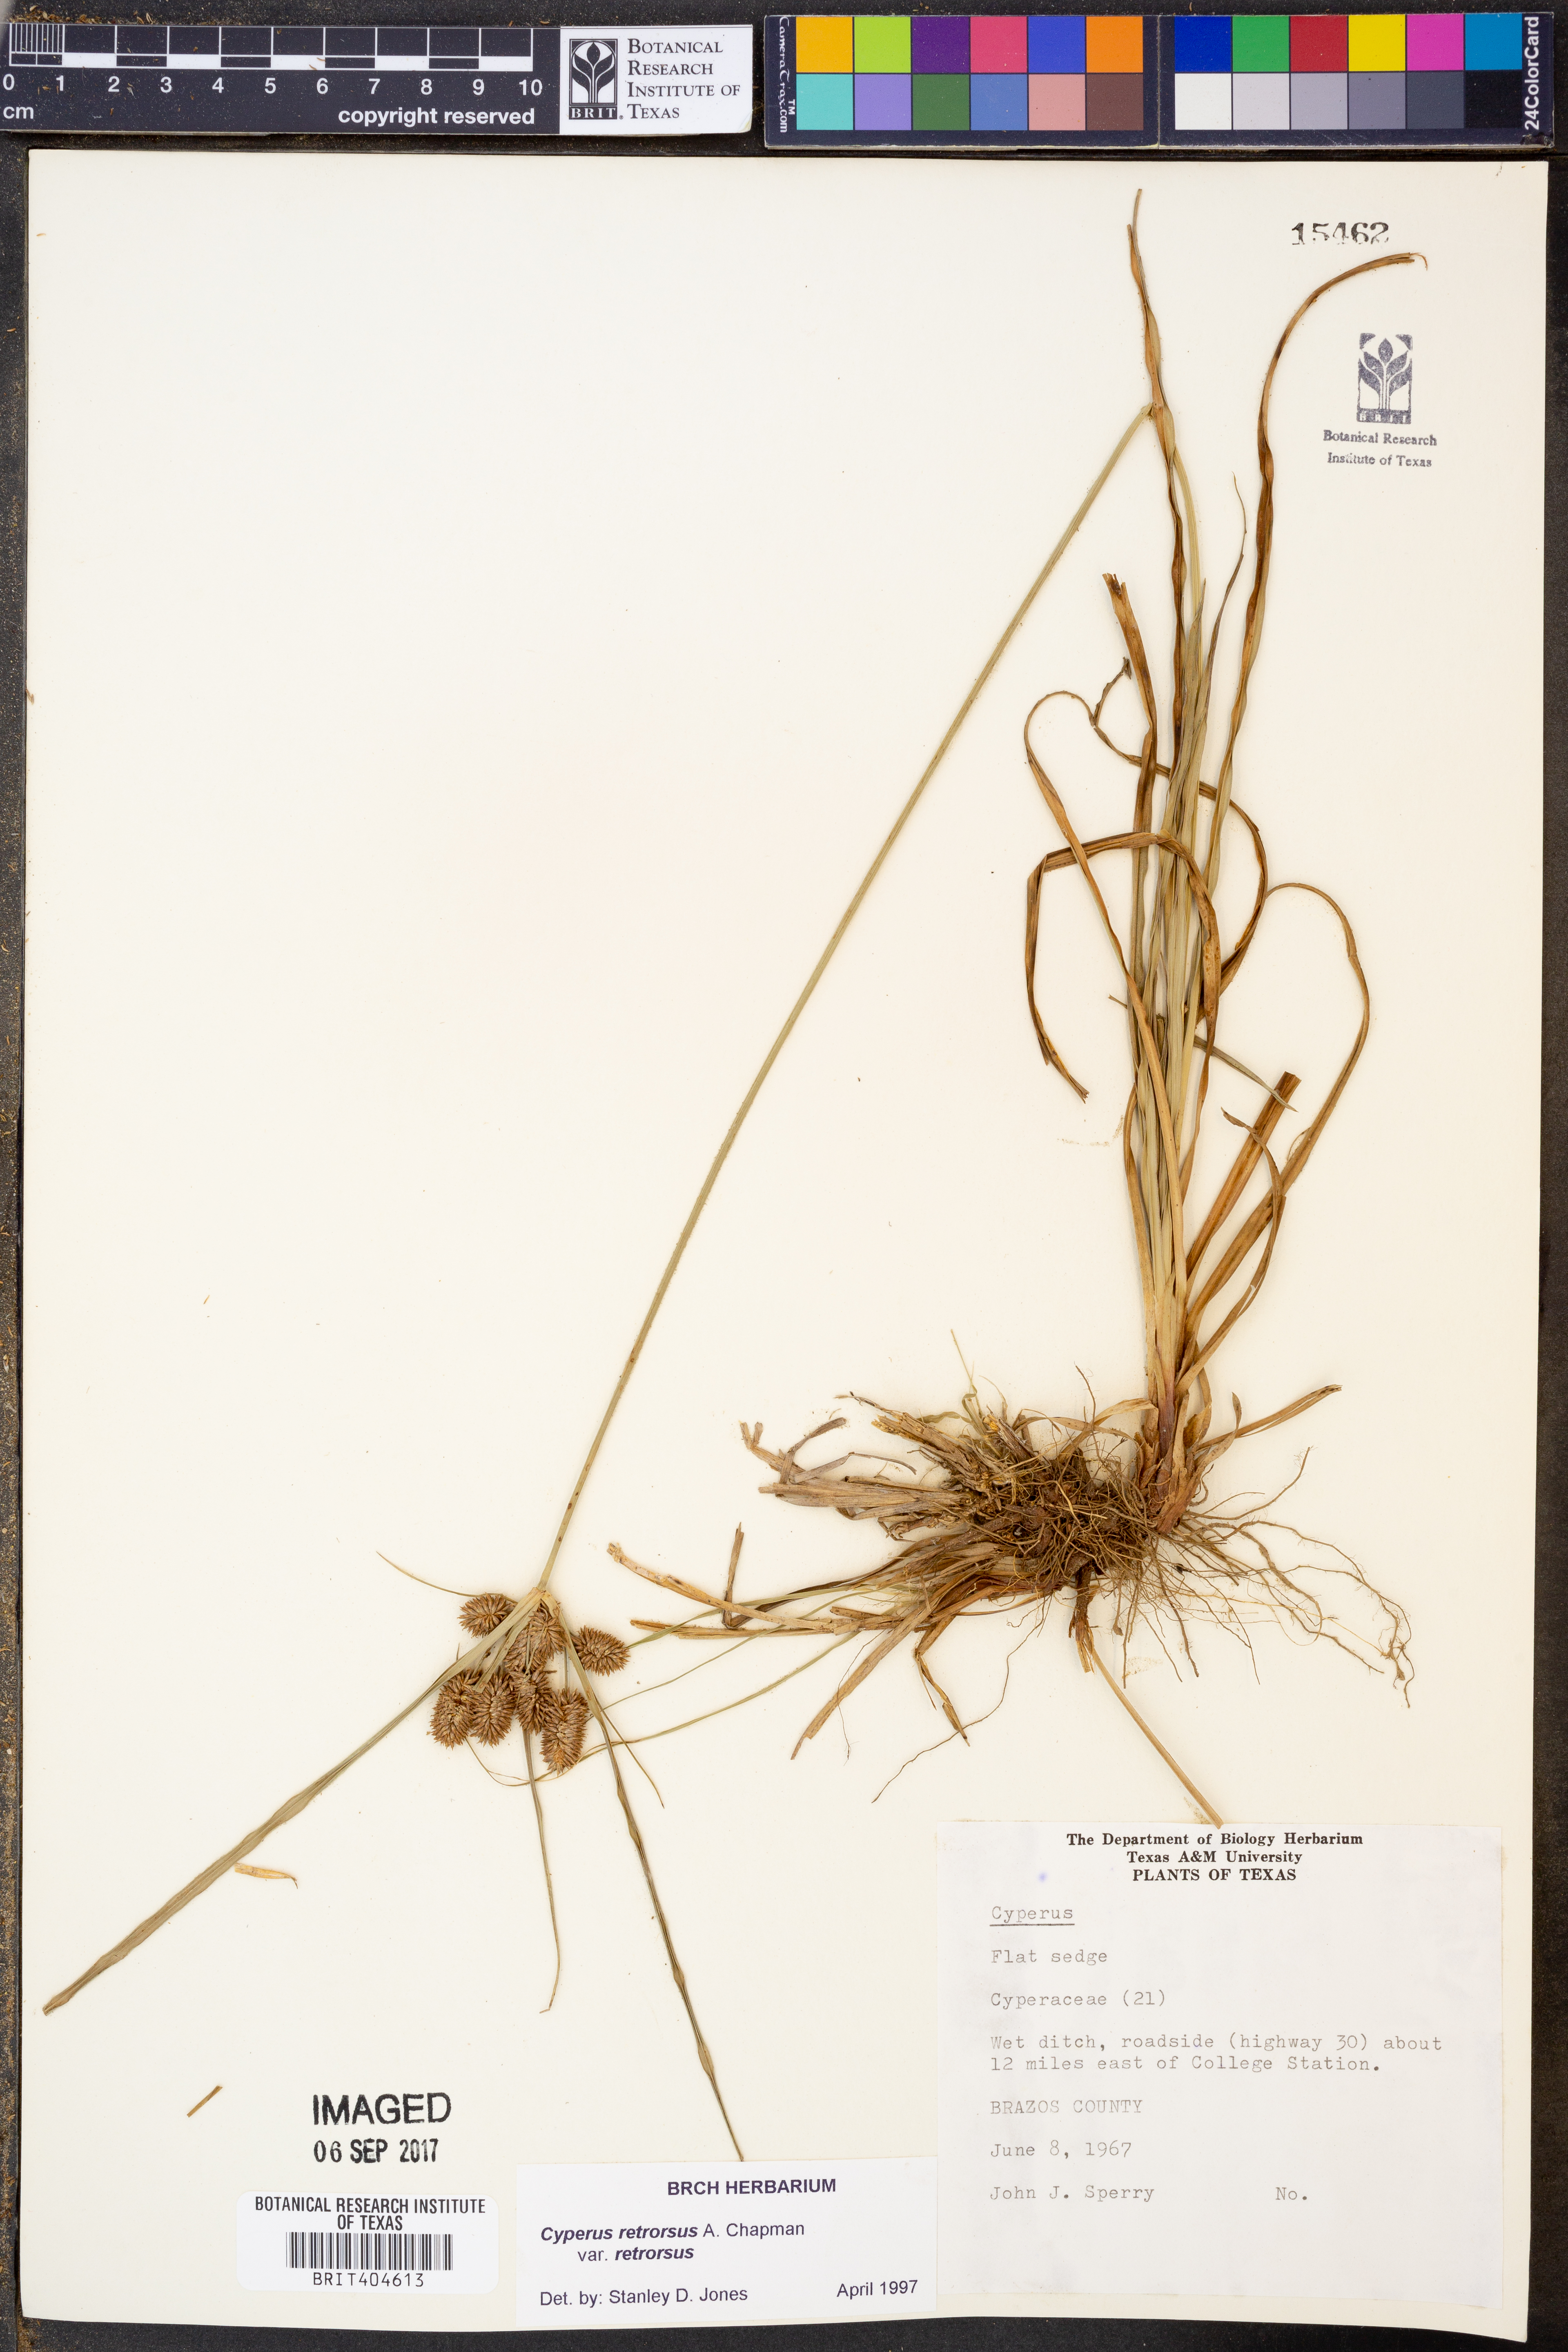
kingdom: Plantae
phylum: Tracheophyta
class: Liliopsida
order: Poales
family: Cyperaceae
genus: Cyperus
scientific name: Cyperus retrorsus
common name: Pinebarren flat sedge
